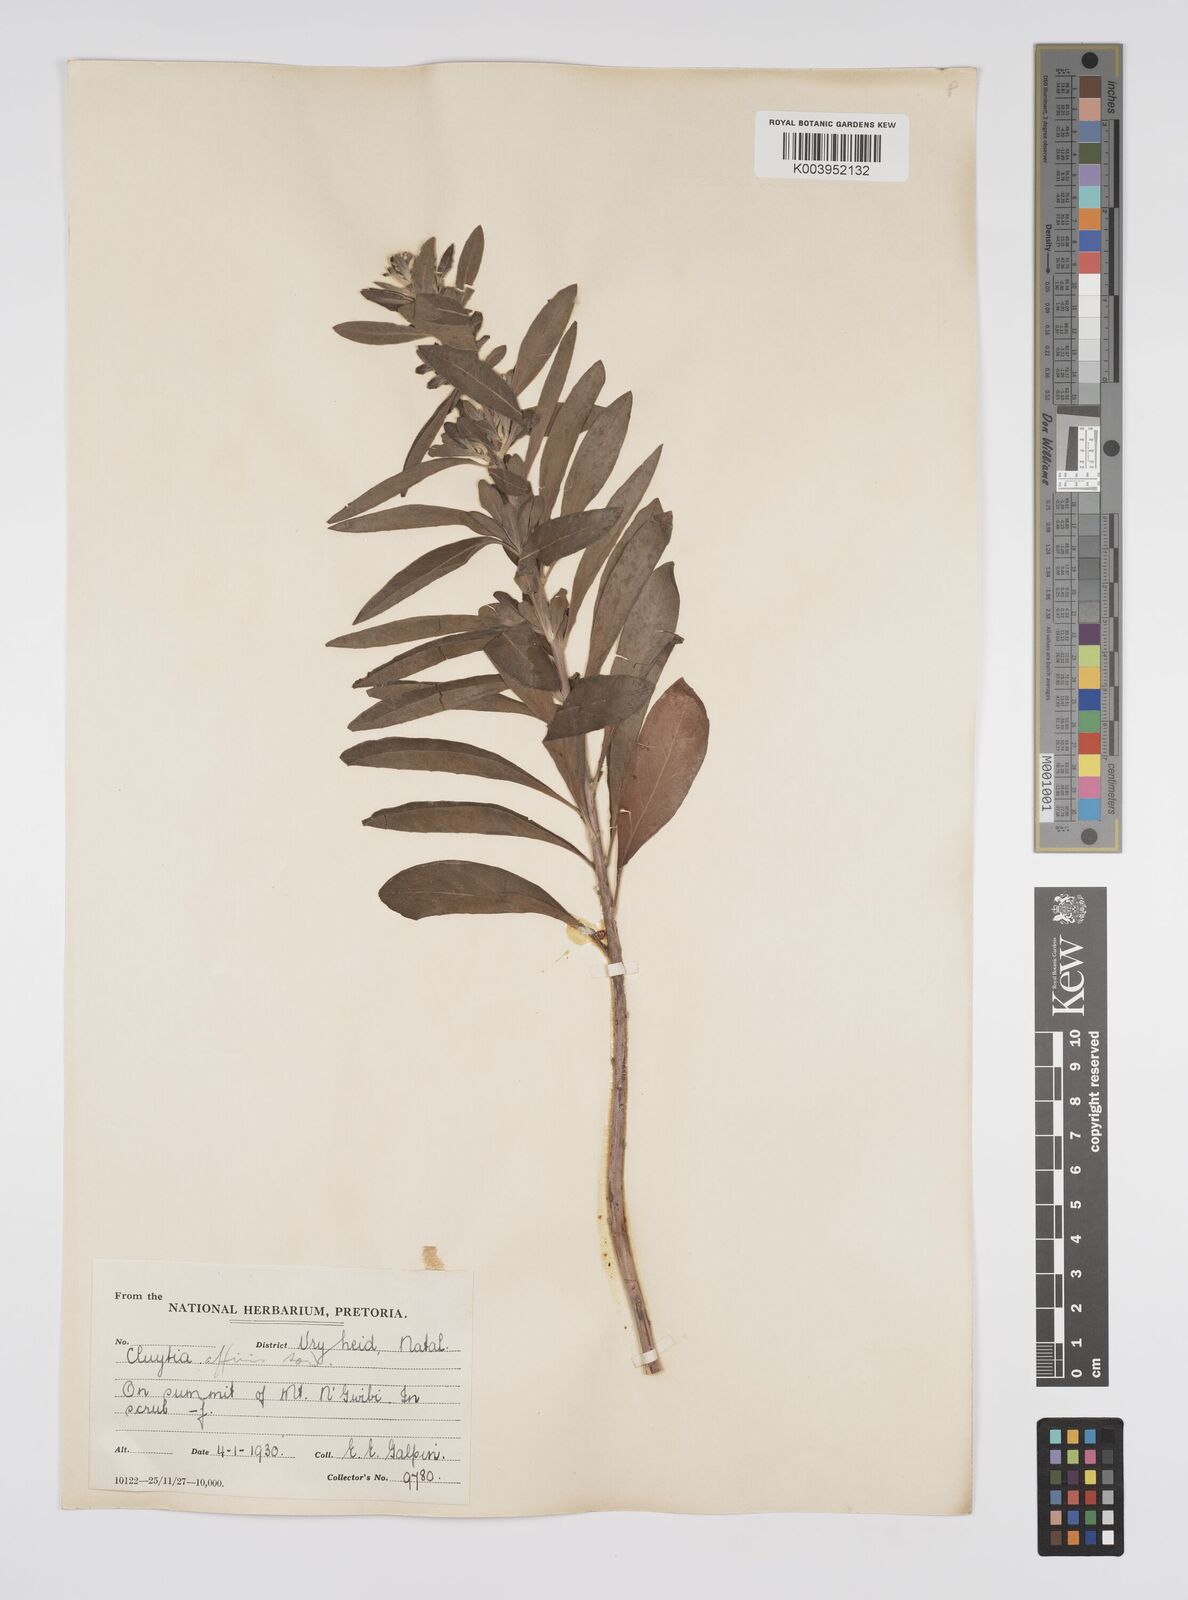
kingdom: Plantae
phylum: Tracheophyta
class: Magnoliopsida
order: Malpighiales
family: Peraceae
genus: Clutia
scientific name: Clutia affinis
